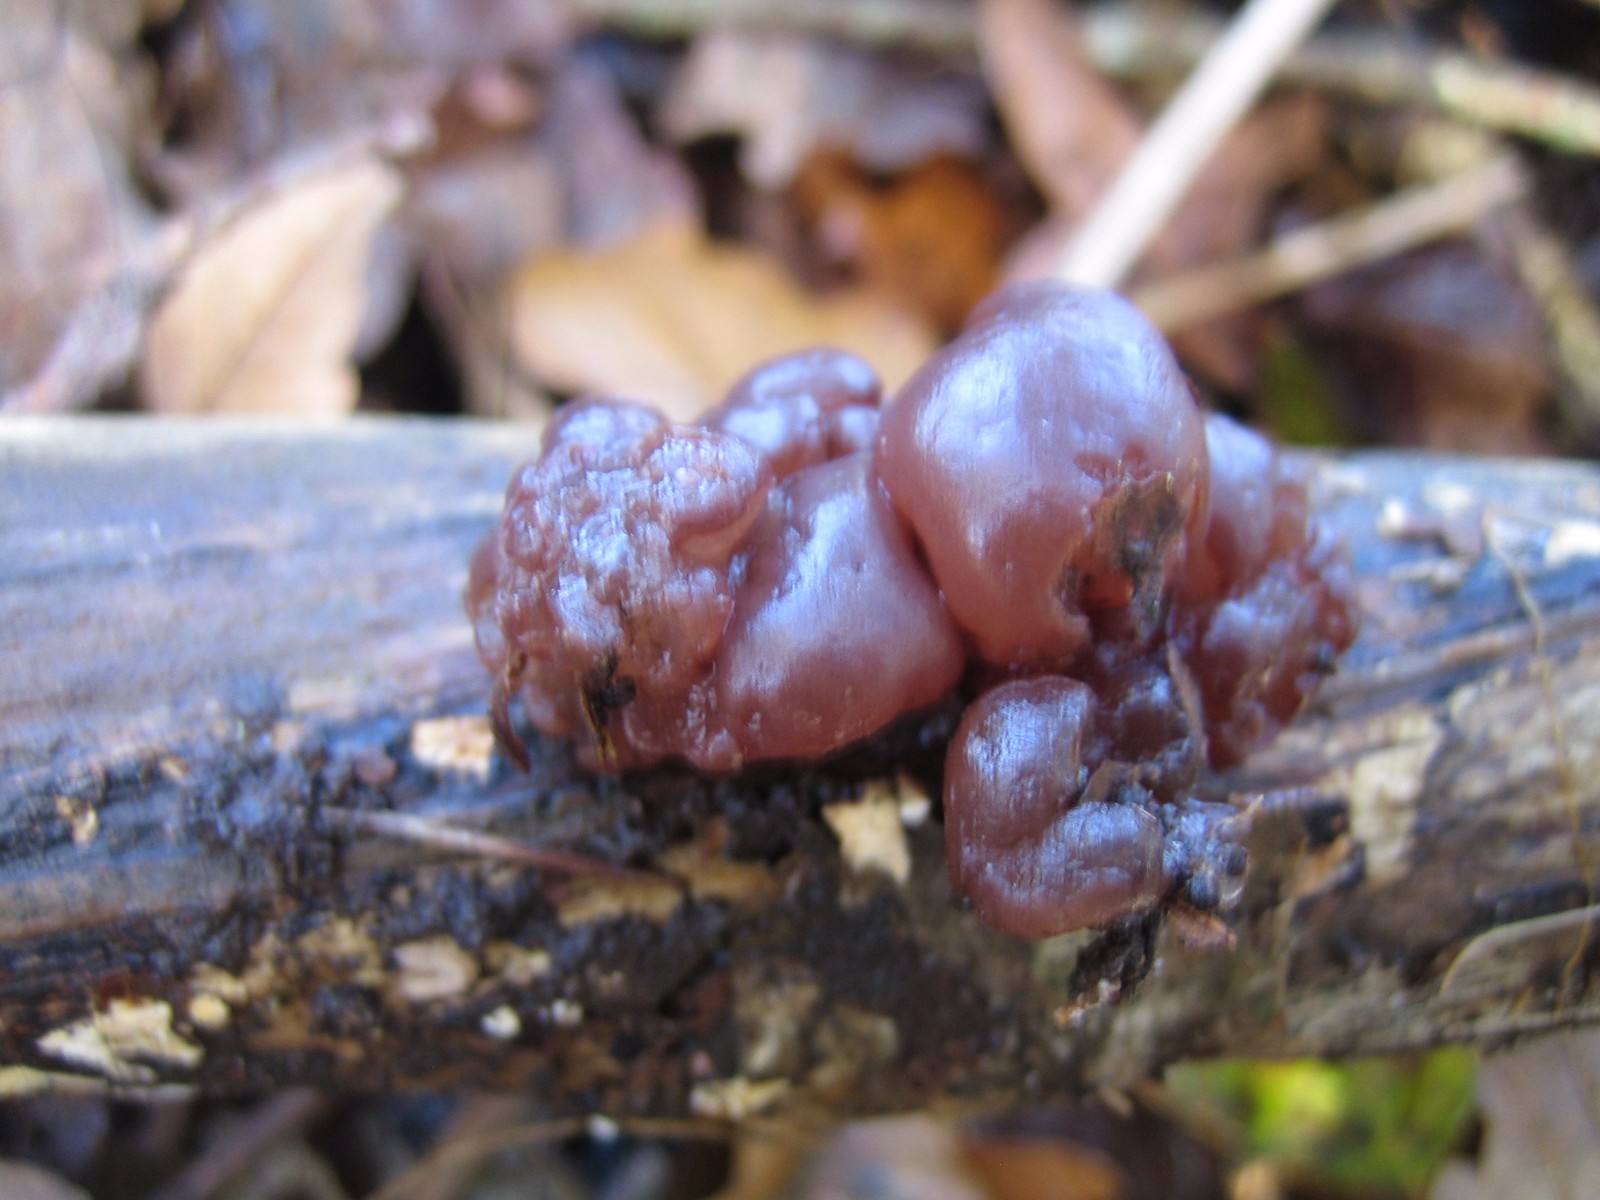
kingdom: Fungi
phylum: Ascomycota
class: Leotiomycetes
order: Helotiales
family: Gelatinodiscaceae
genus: Ascotremella
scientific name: Ascotremella faginea
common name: hjerne-bævreskive
